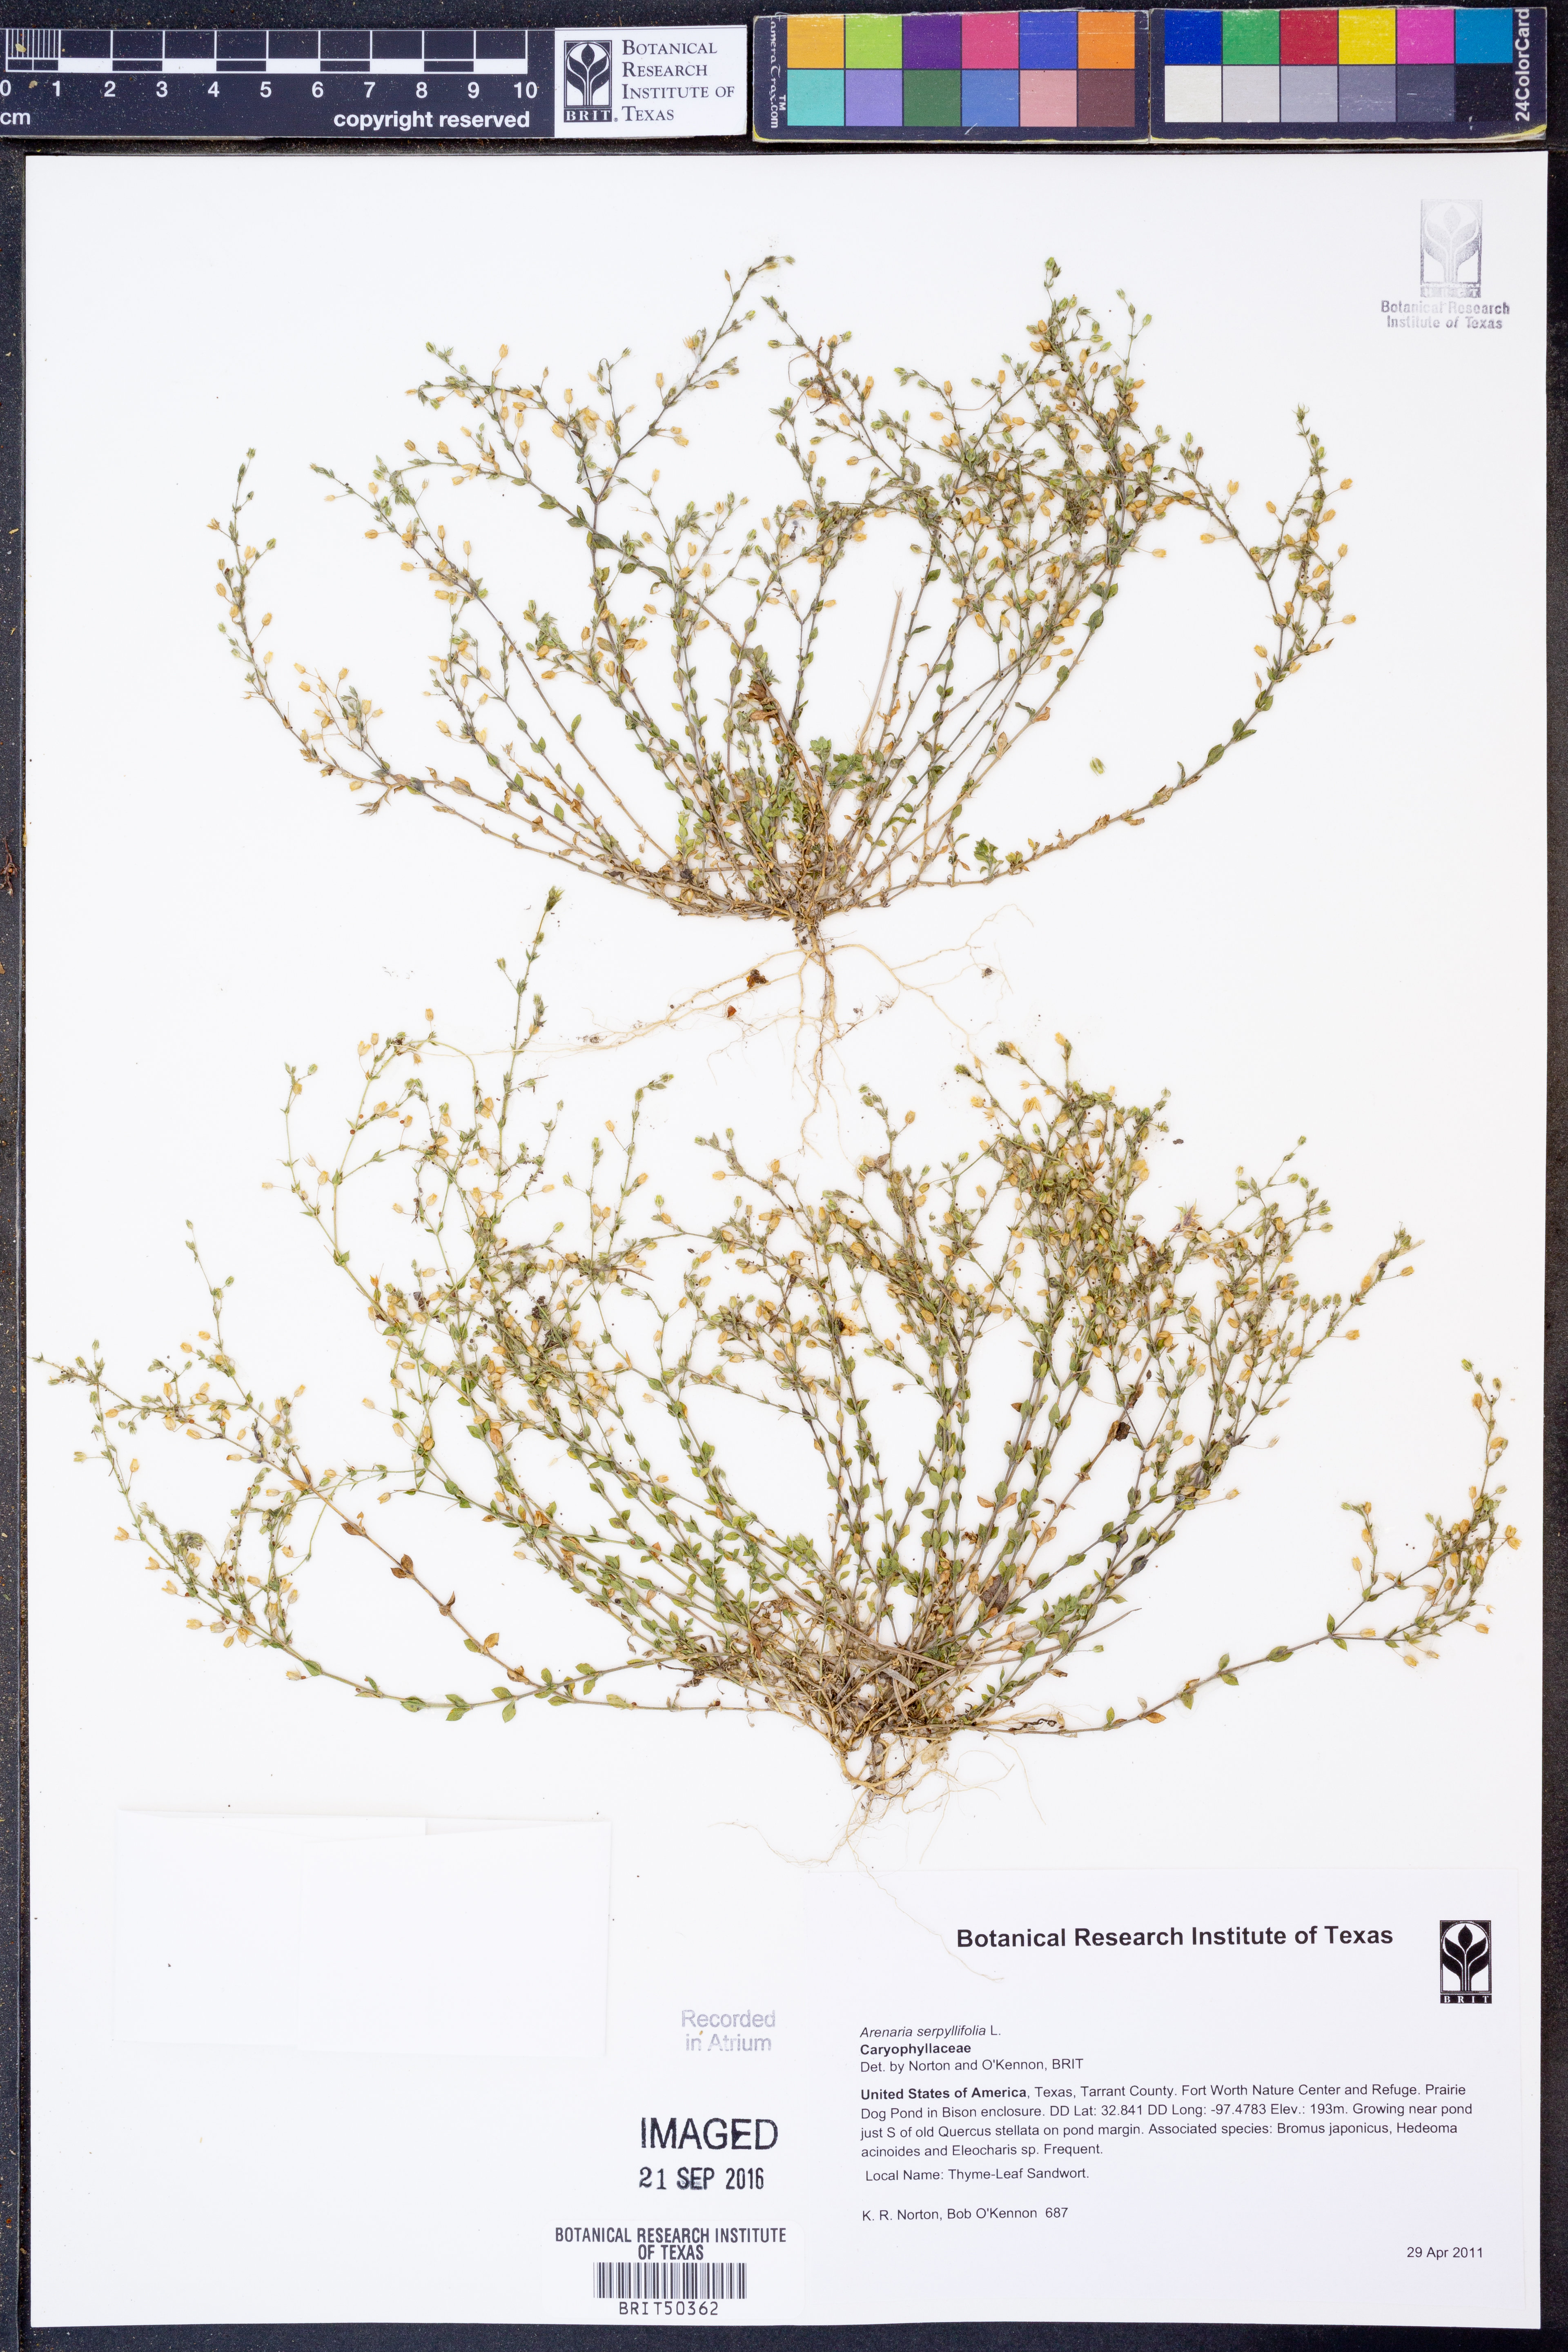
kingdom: Plantae
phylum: Tracheophyta
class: Magnoliopsida
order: Caryophyllales
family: Caryophyllaceae
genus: Arenaria
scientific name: Arenaria serpyllifolia
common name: Thyme-leaved sandwort
